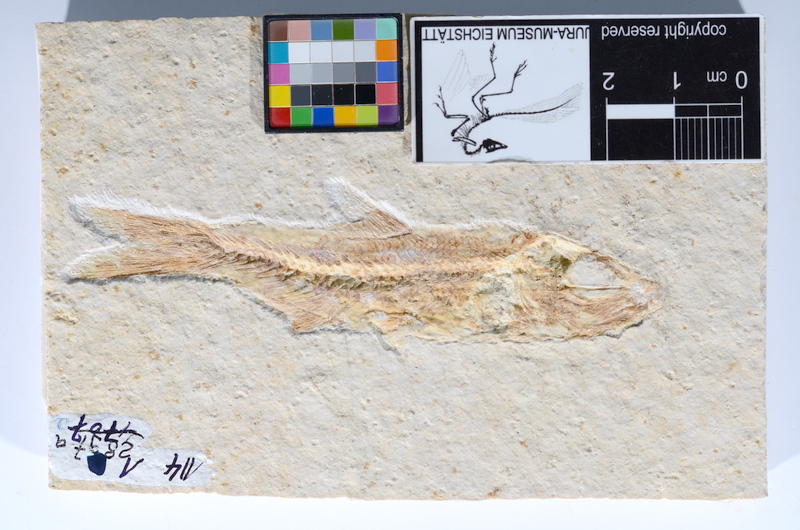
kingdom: Animalia
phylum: Chordata
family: Ascalaboidae
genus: Ascalabos
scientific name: Ascalabos voithii
